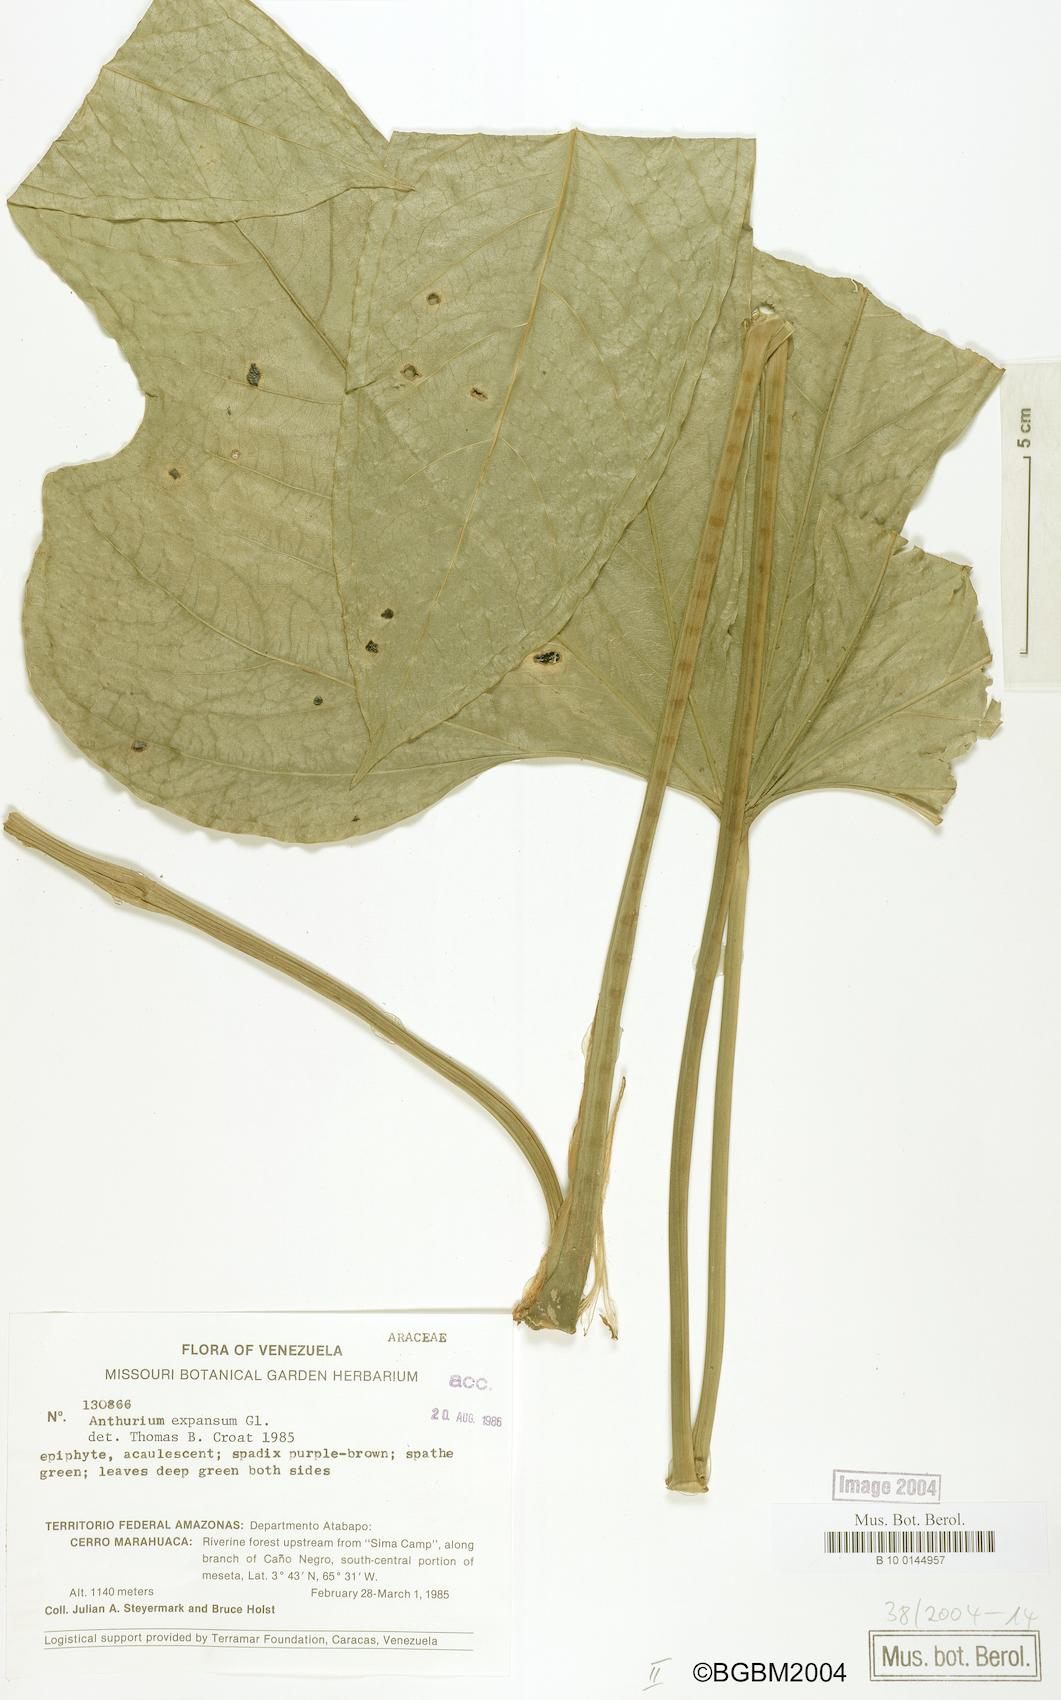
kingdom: Plantae
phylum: Tracheophyta
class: Liliopsida
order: Alismatales
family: Araceae
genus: Anthurium
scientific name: Anthurium expansum
